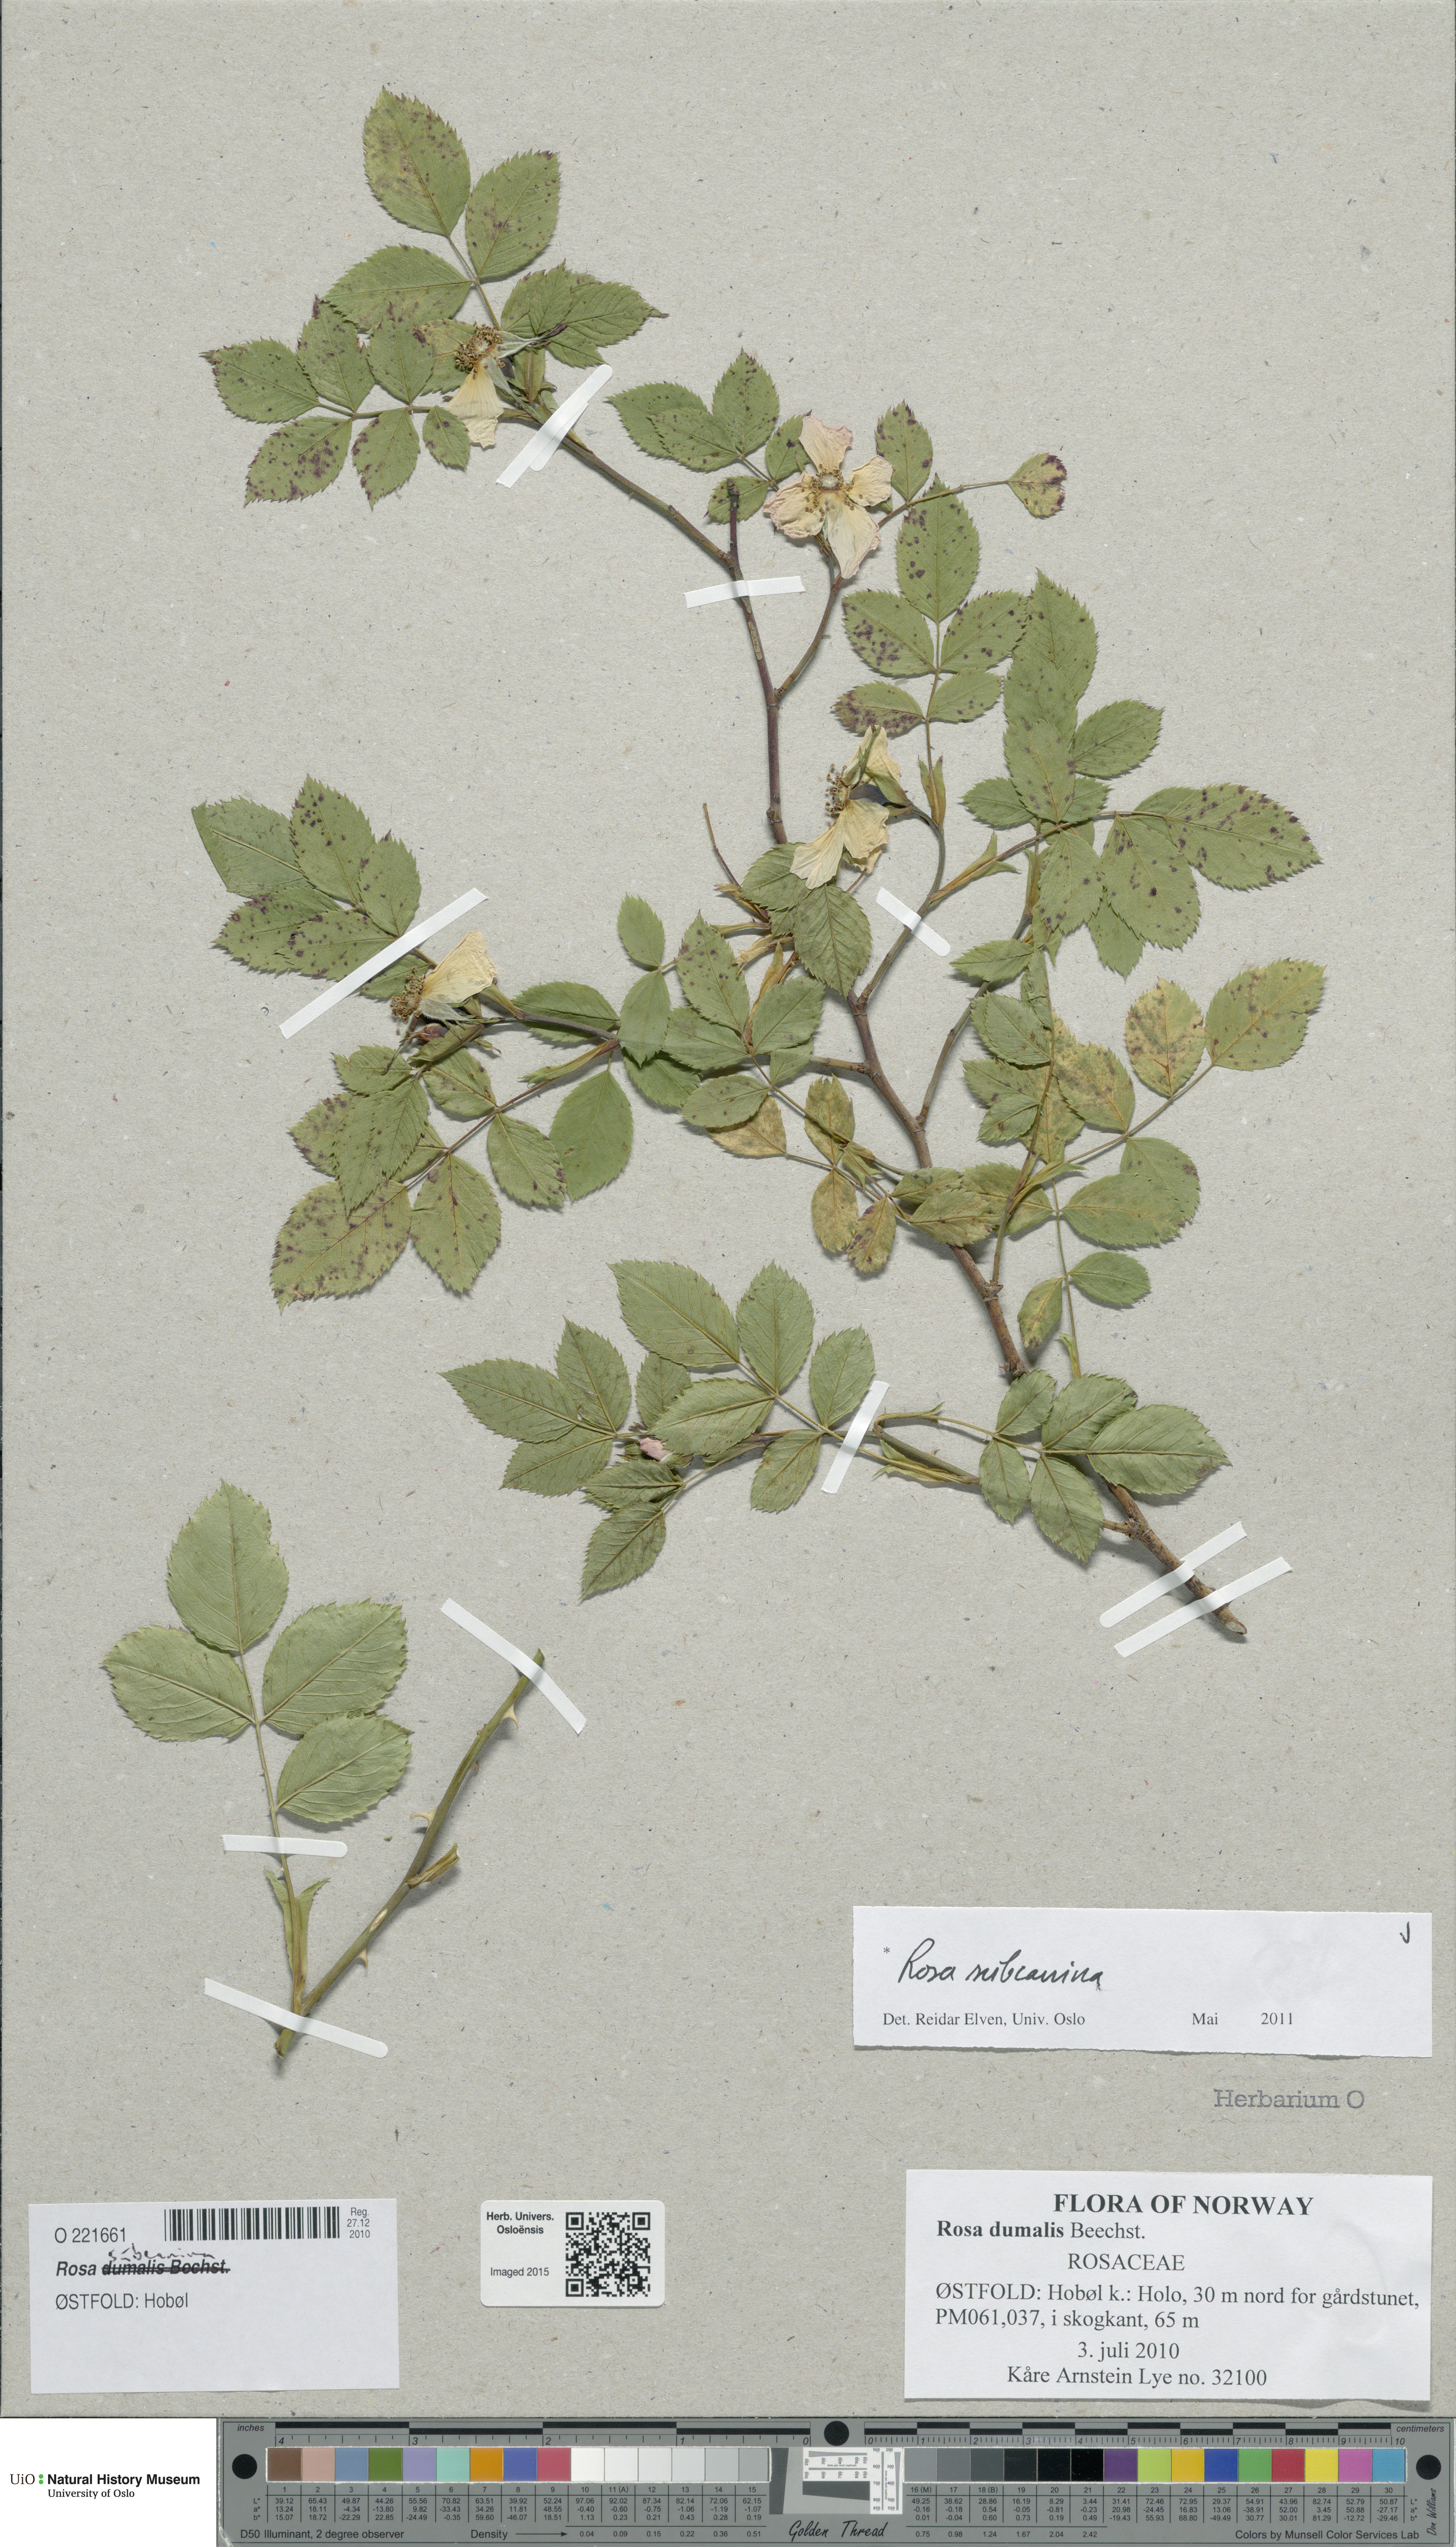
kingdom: Plantae
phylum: Tracheophyta
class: Magnoliopsida
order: Rosales
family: Rosaceae
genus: Rosa
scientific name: Rosa subcanina
